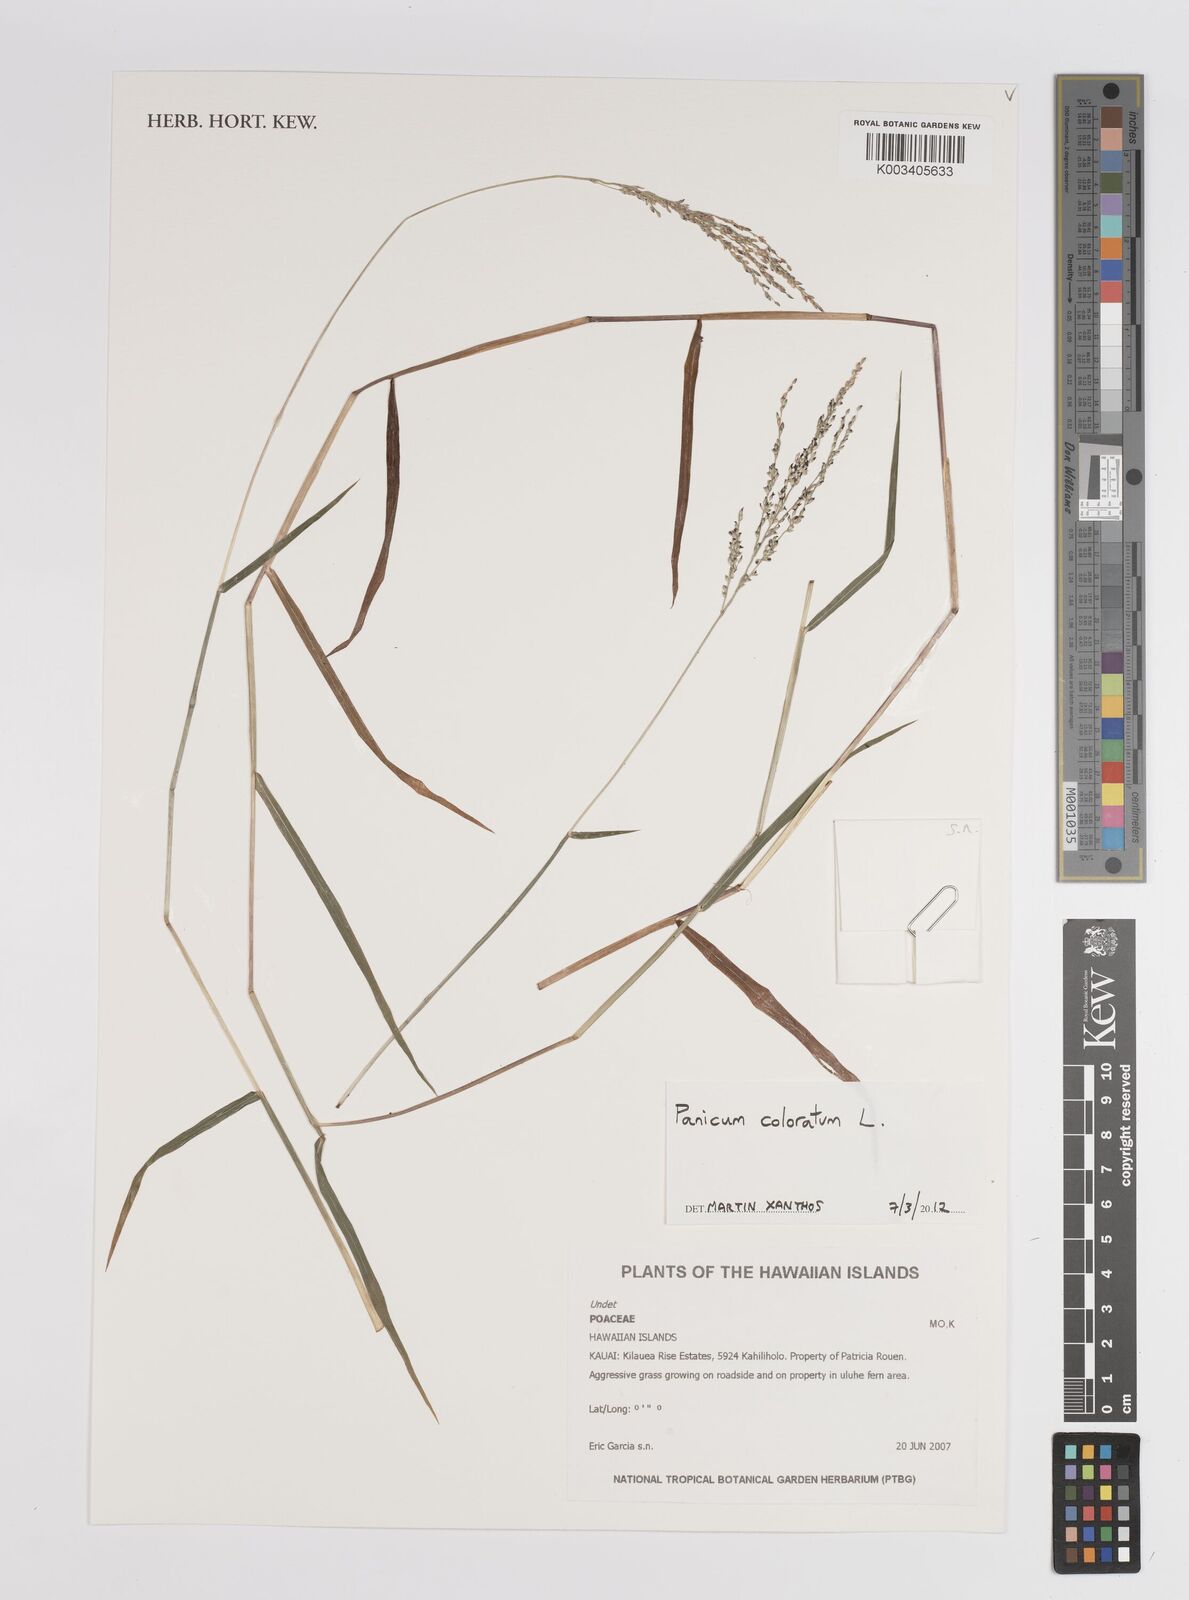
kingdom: Plantae
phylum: Tracheophyta
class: Liliopsida
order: Poales
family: Poaceae
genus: Tricholaena
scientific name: Tricholaena monachne
